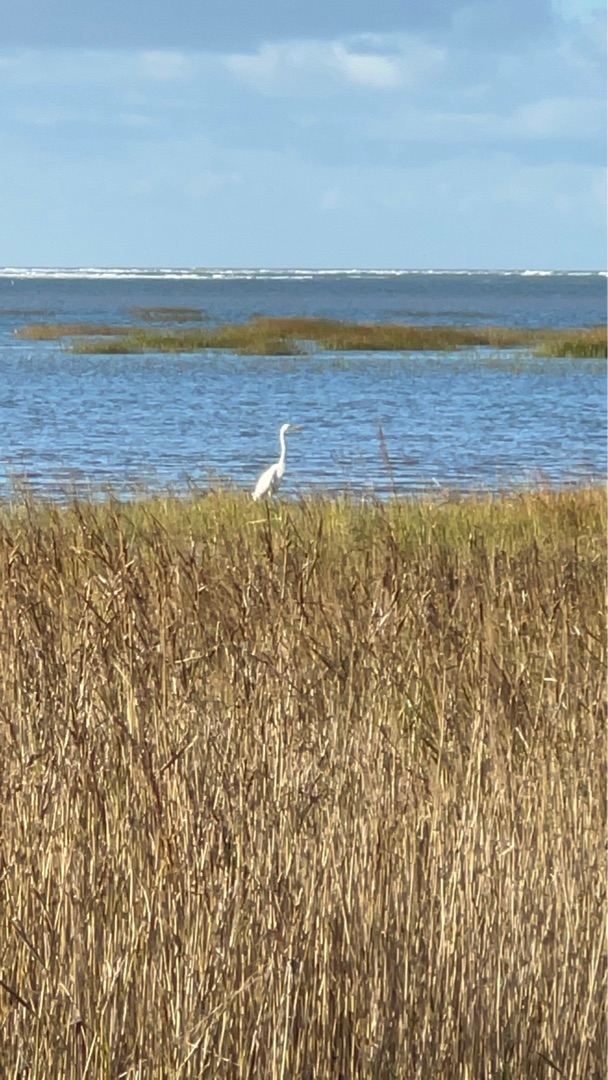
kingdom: Animalia
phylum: Chordata
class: Aves
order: Pelecaniformes
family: Ardeidae
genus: Ardea
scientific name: Ardea alba
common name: Sølvhejre
